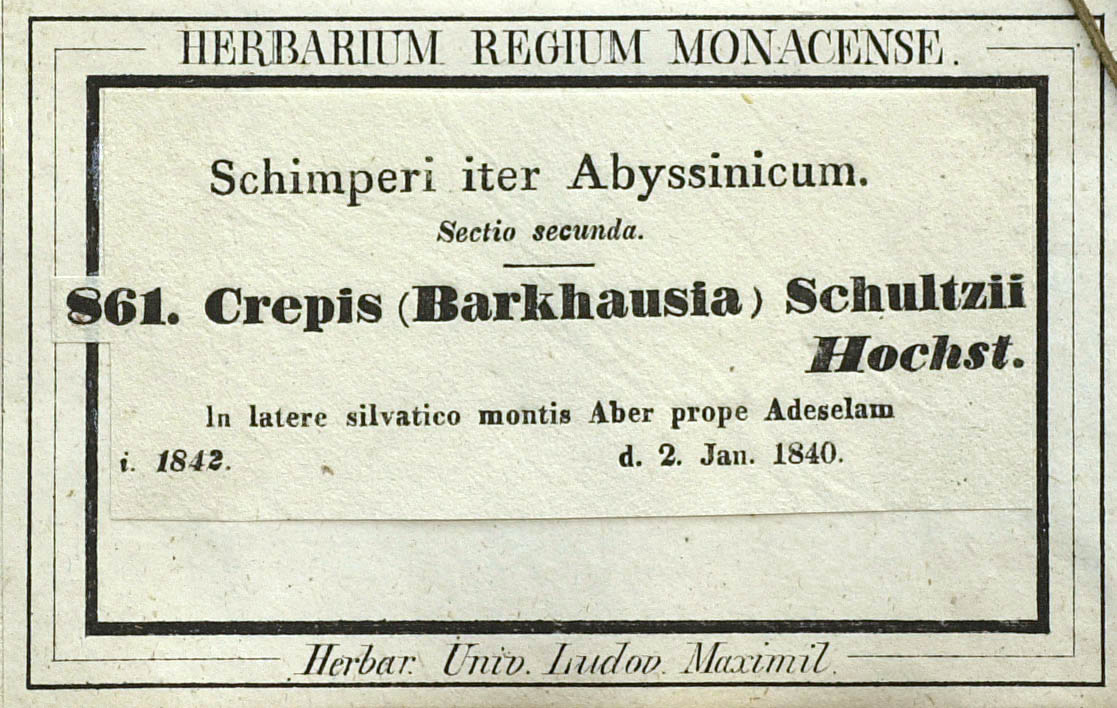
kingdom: Plantae
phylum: Tracheophyta
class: Magnoliopsida
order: Asterales
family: Asteraceae
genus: Crepis
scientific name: Crepis schultzii
